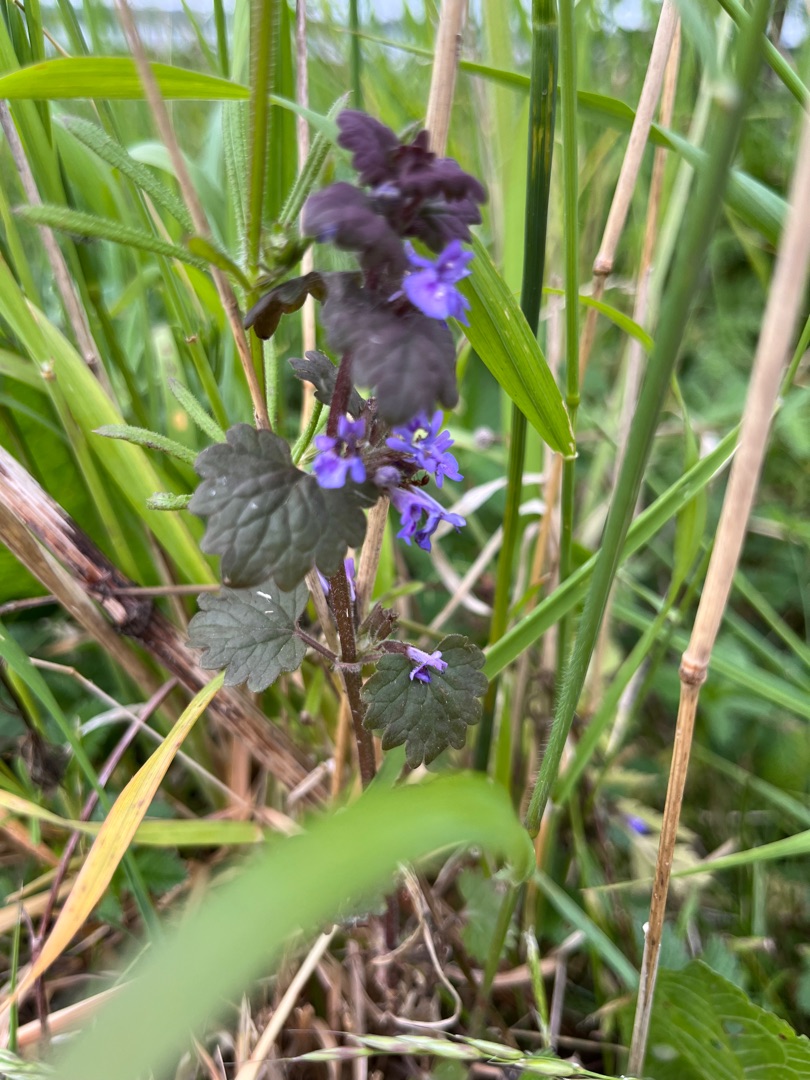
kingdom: Plantae
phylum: Tracheophyta
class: Magnoliopsida
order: Lamiales
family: Lamiaceae
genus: Glechoma
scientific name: Glechoma hederacea
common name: Korsknap
